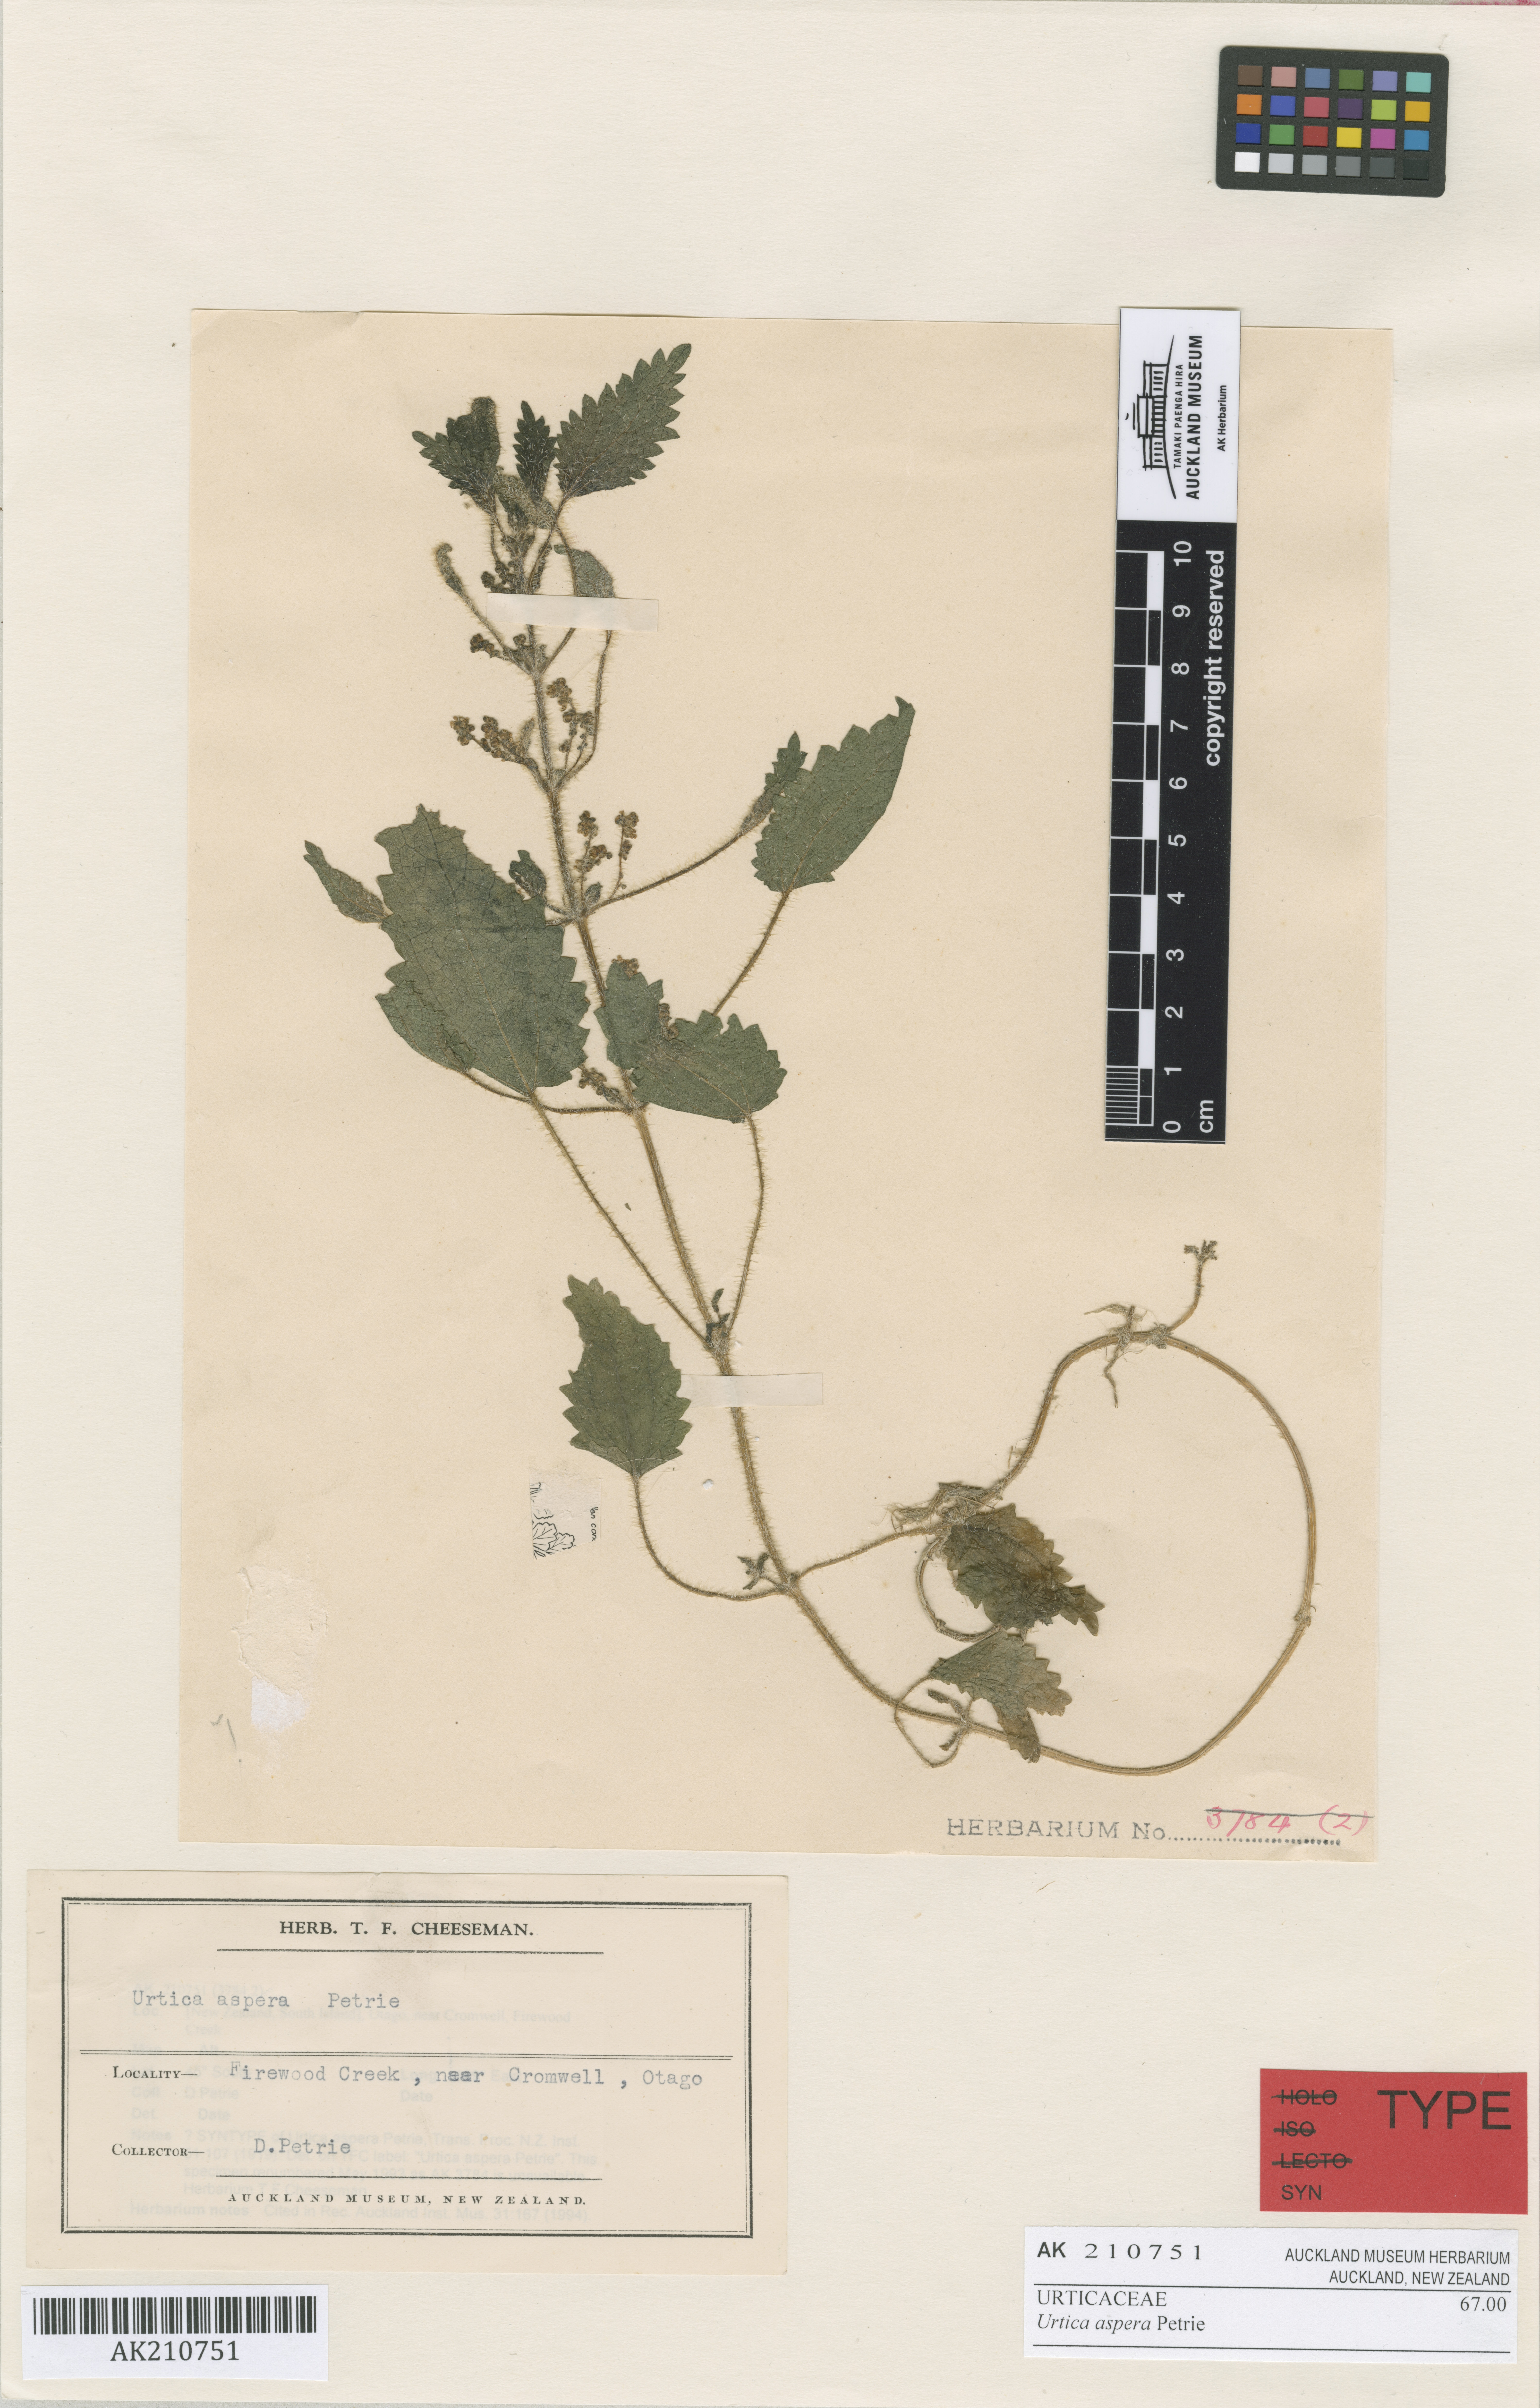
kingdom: Plantae
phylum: Tracheophyta
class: Magnoliopsida
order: Rosales
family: Urticaceae
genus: Urtica
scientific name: Urtica aspera
